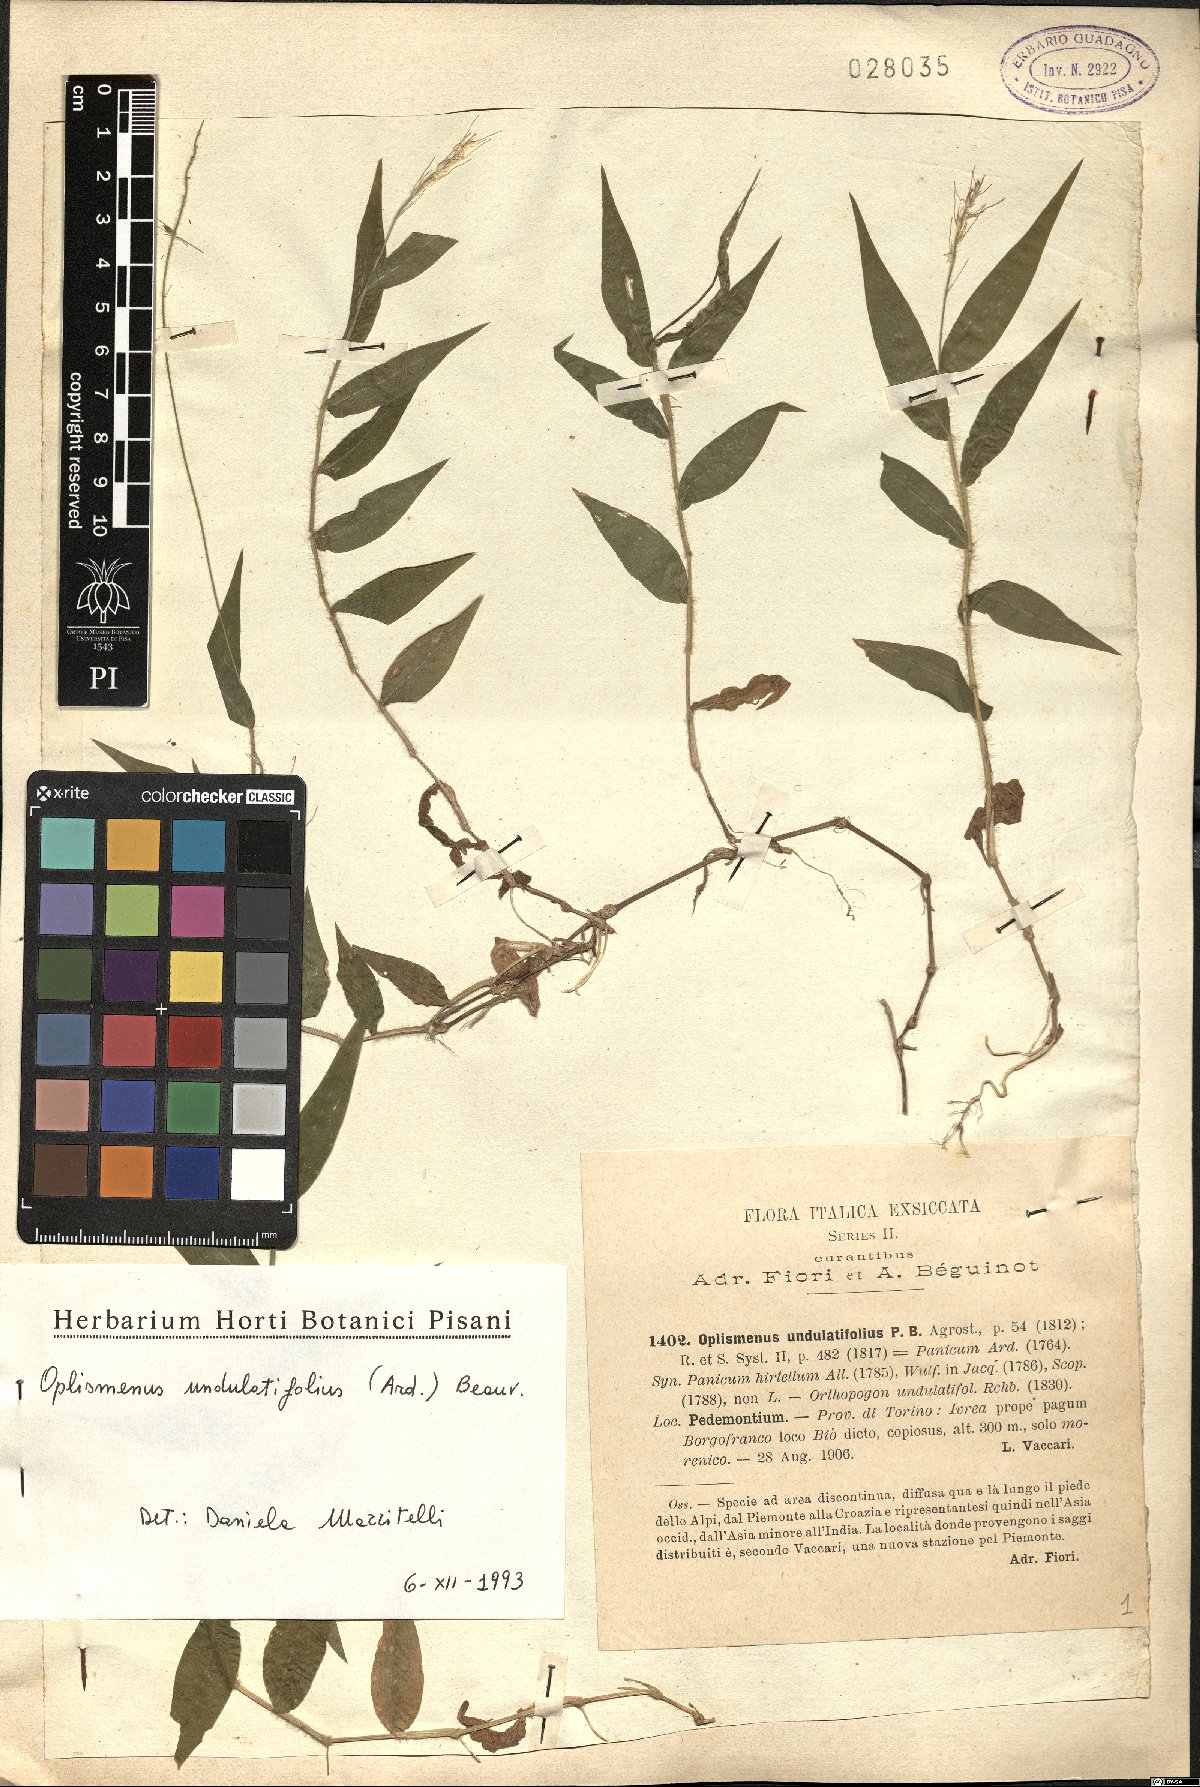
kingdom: Plantae
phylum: Tracheophyta
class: Liliopsida
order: Poales
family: Poaceae
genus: Oplismenus
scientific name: Oplismenus undulatifolius
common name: Wavyleaf basketgrass
